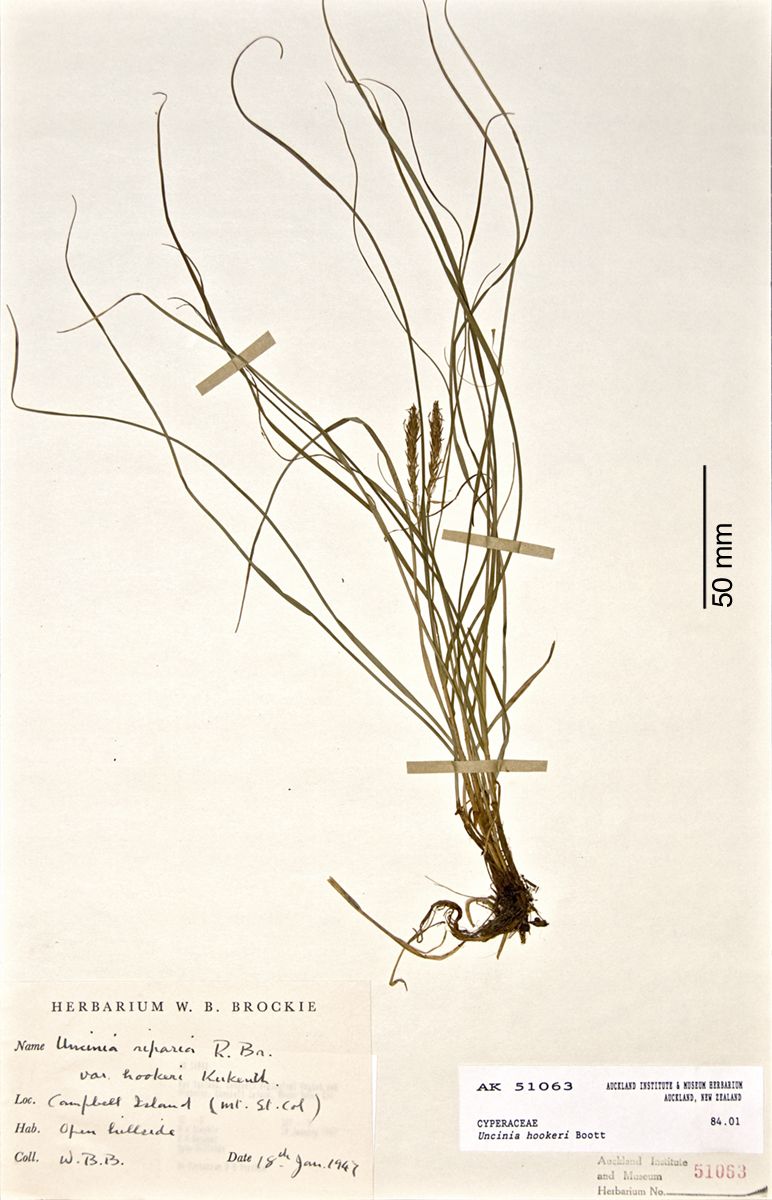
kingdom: Plantae
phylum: Tracheophyta
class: Liliopsida
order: Poales
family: Cyperaceae
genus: Carex
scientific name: Carex erebus
